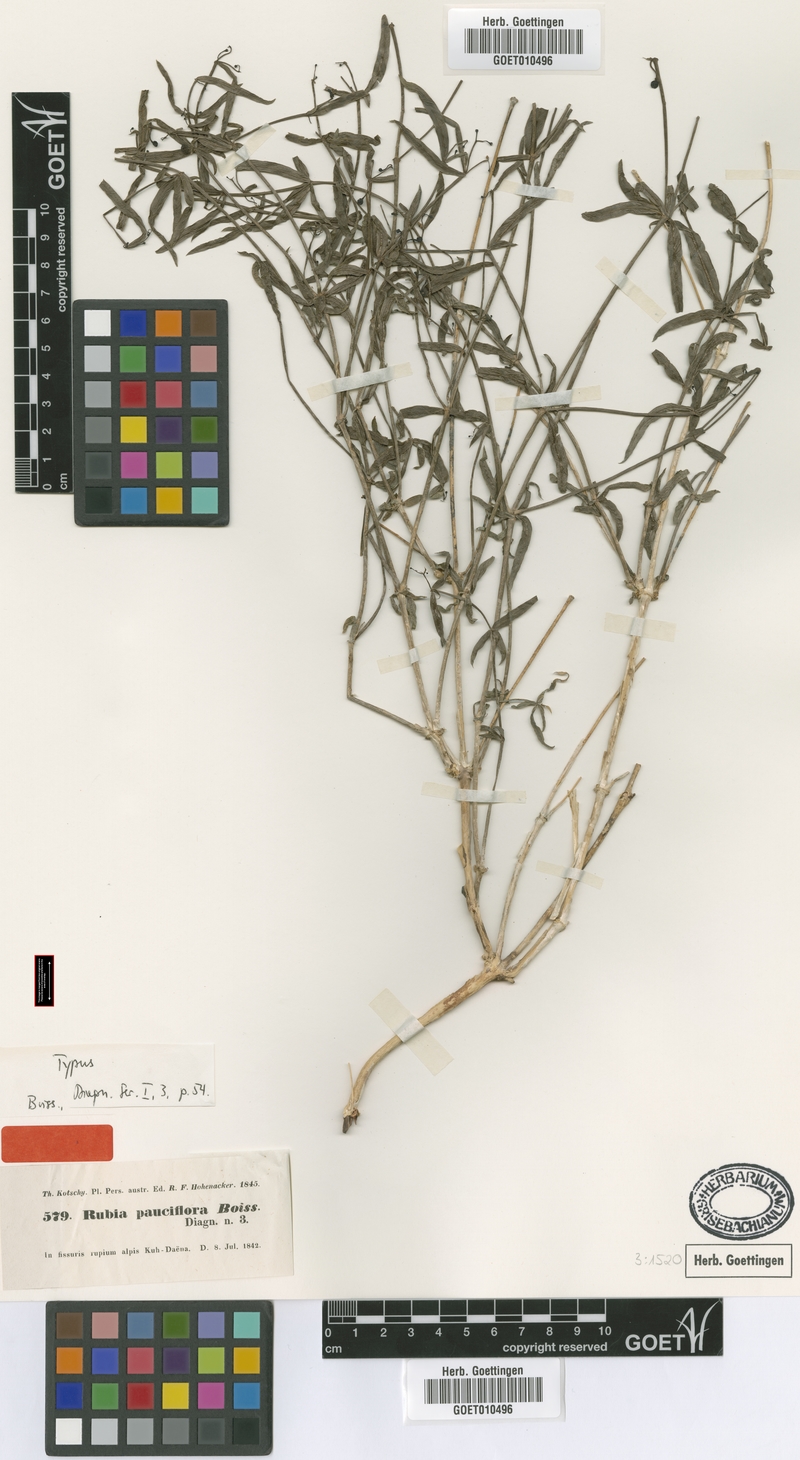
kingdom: Plantae
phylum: Tracheophyta
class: Magnoliopsida
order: Gentianales
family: Rubiaceae
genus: Rubia
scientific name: Rubia pauciflora
